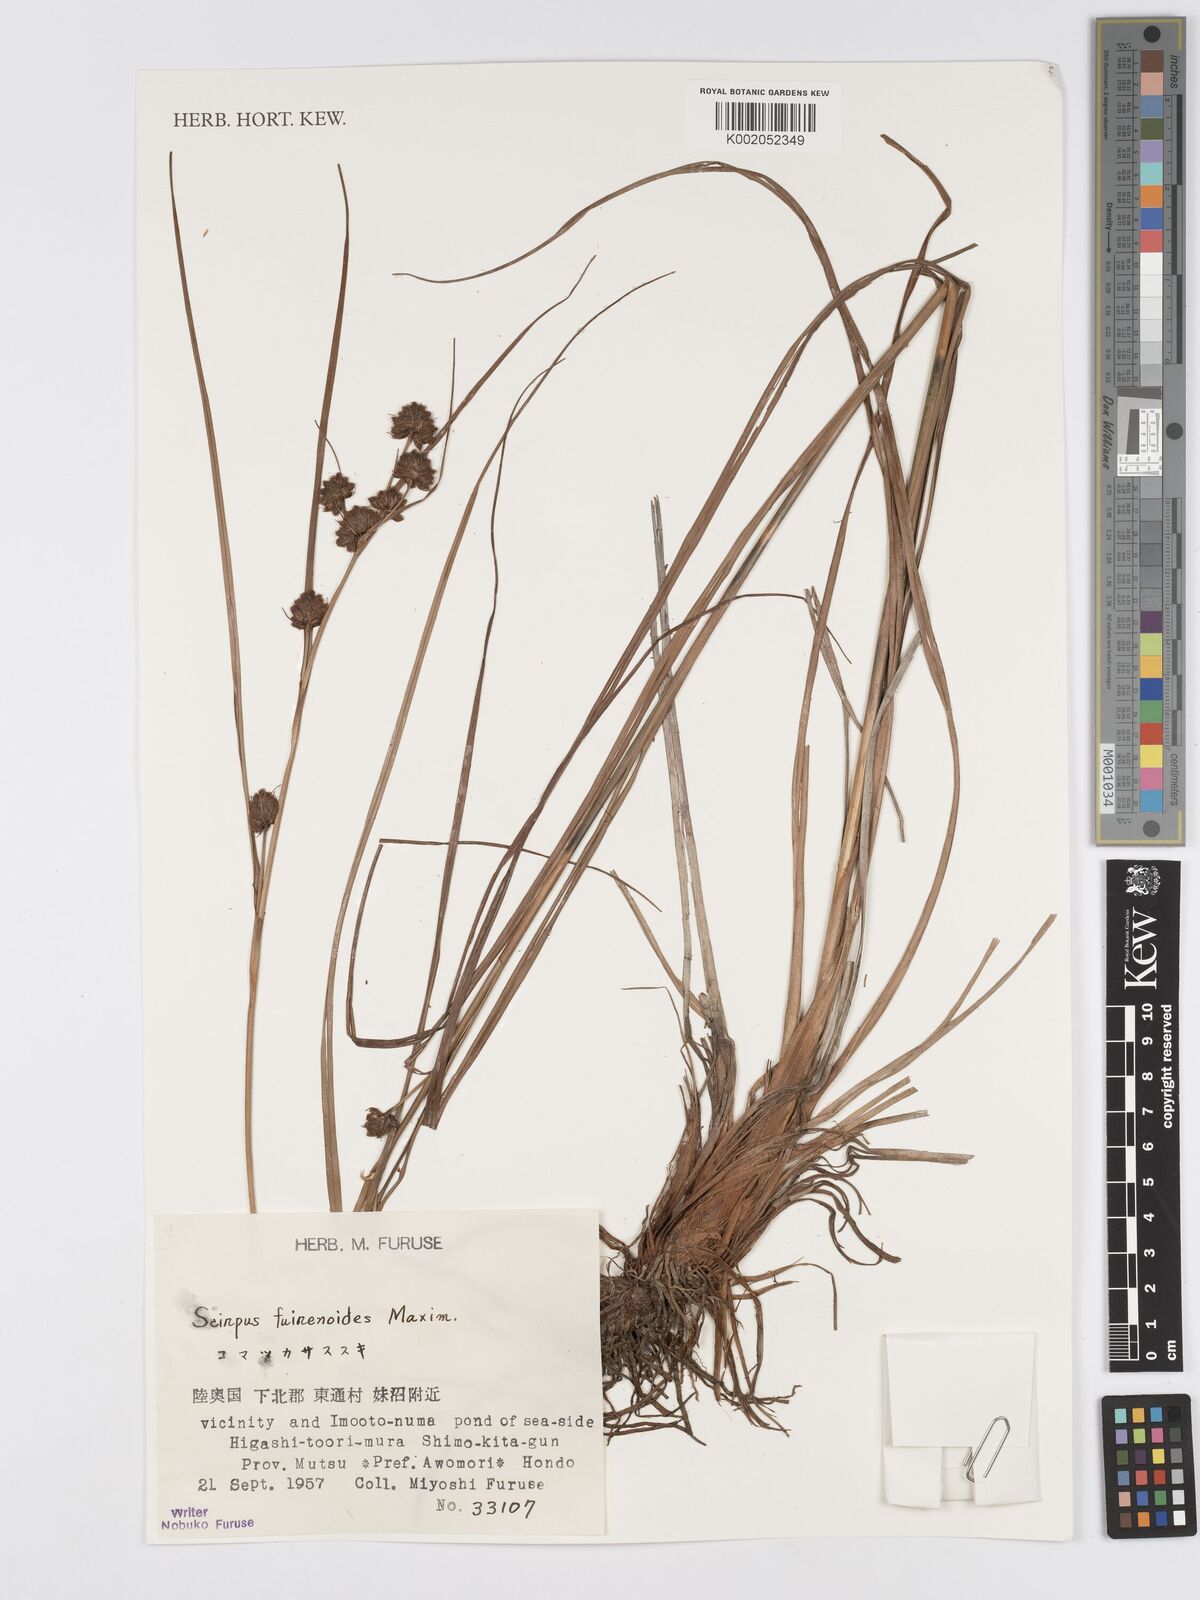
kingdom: Plantae
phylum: Tracheophyta
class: Liliopsida
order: Poales
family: Cyperaceae
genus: Scirpus
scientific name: Scirpus fuirenoides
